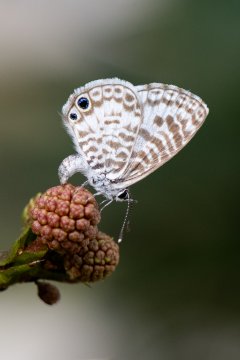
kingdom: Animalia
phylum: Arthropoda
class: Insecta
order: Lepidoptera
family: Lycaenidae
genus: Leptotes
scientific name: Leptotes cassius
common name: Cassius Blue
